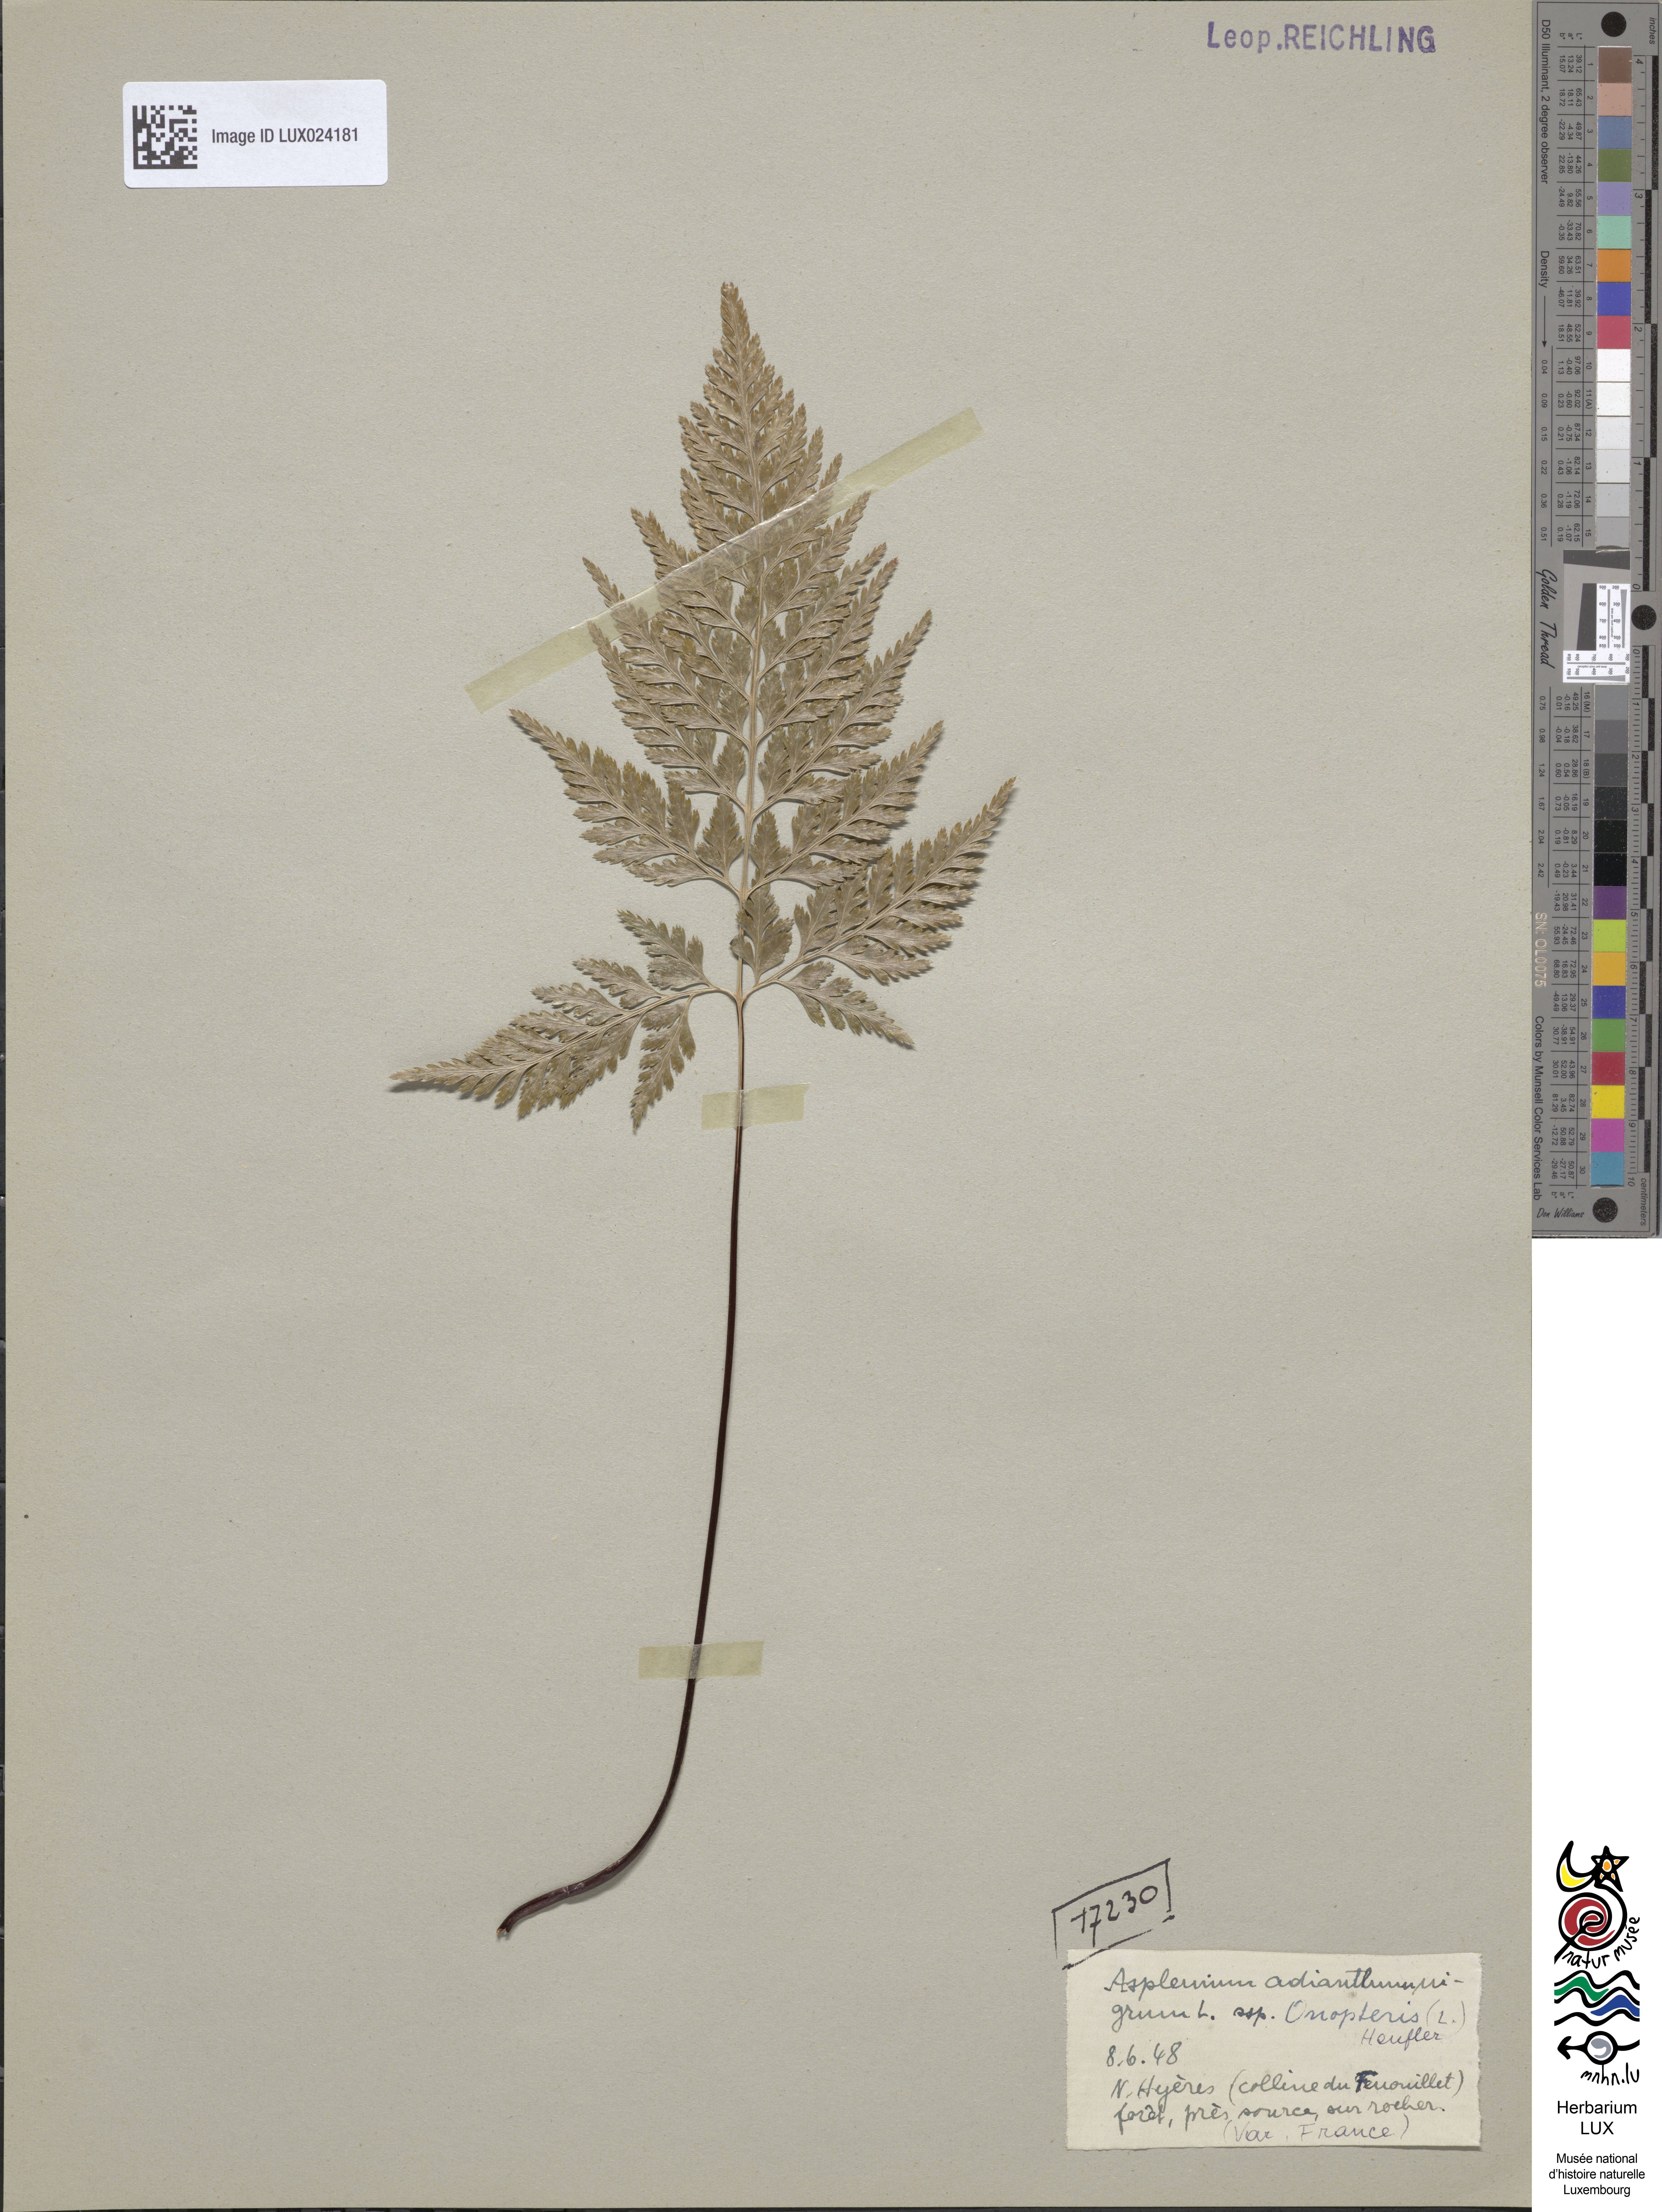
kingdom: Plantae
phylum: Tracheophyta
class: Polypodiopsida
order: Polypodiales
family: Aspleniaceae
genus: Asplenium
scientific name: Asplenium adiantum-nigrum
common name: Black spleenwort
